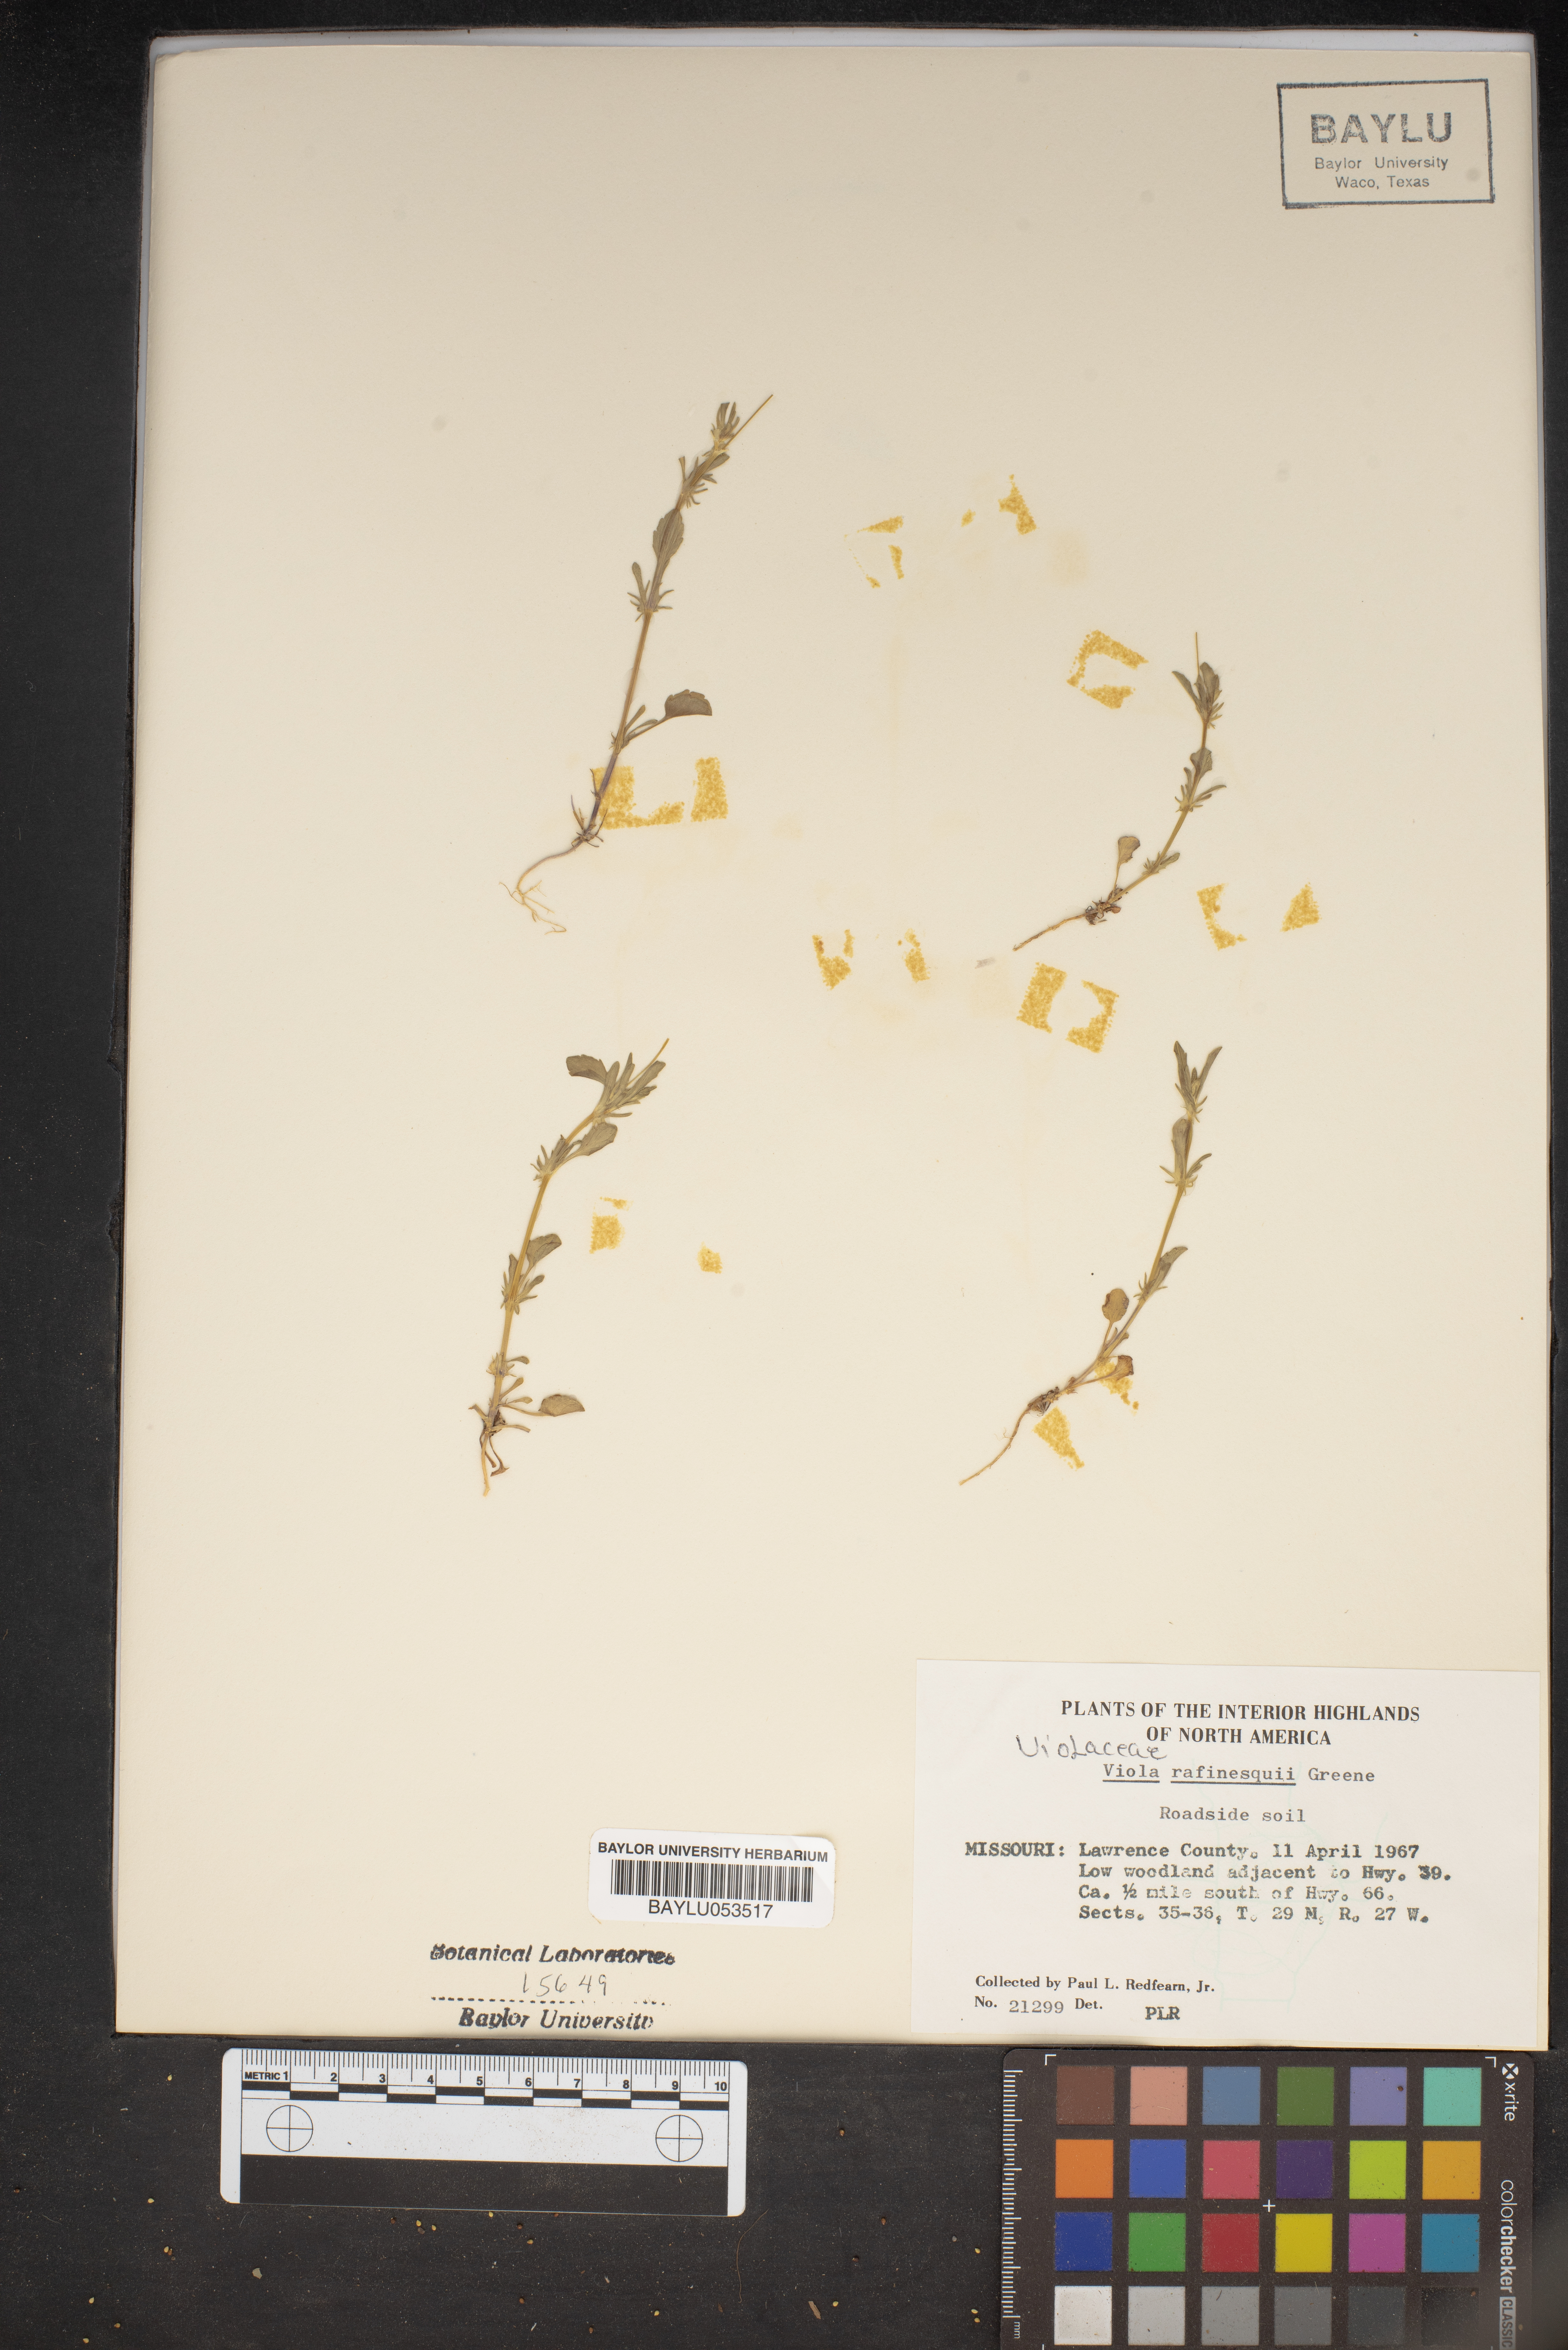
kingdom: Plantae
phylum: Tracheophyta
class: Magnoliopsida
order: Malpighiales
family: Violaceae
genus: Viola
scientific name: Viola rafinesquei
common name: American field pansy
